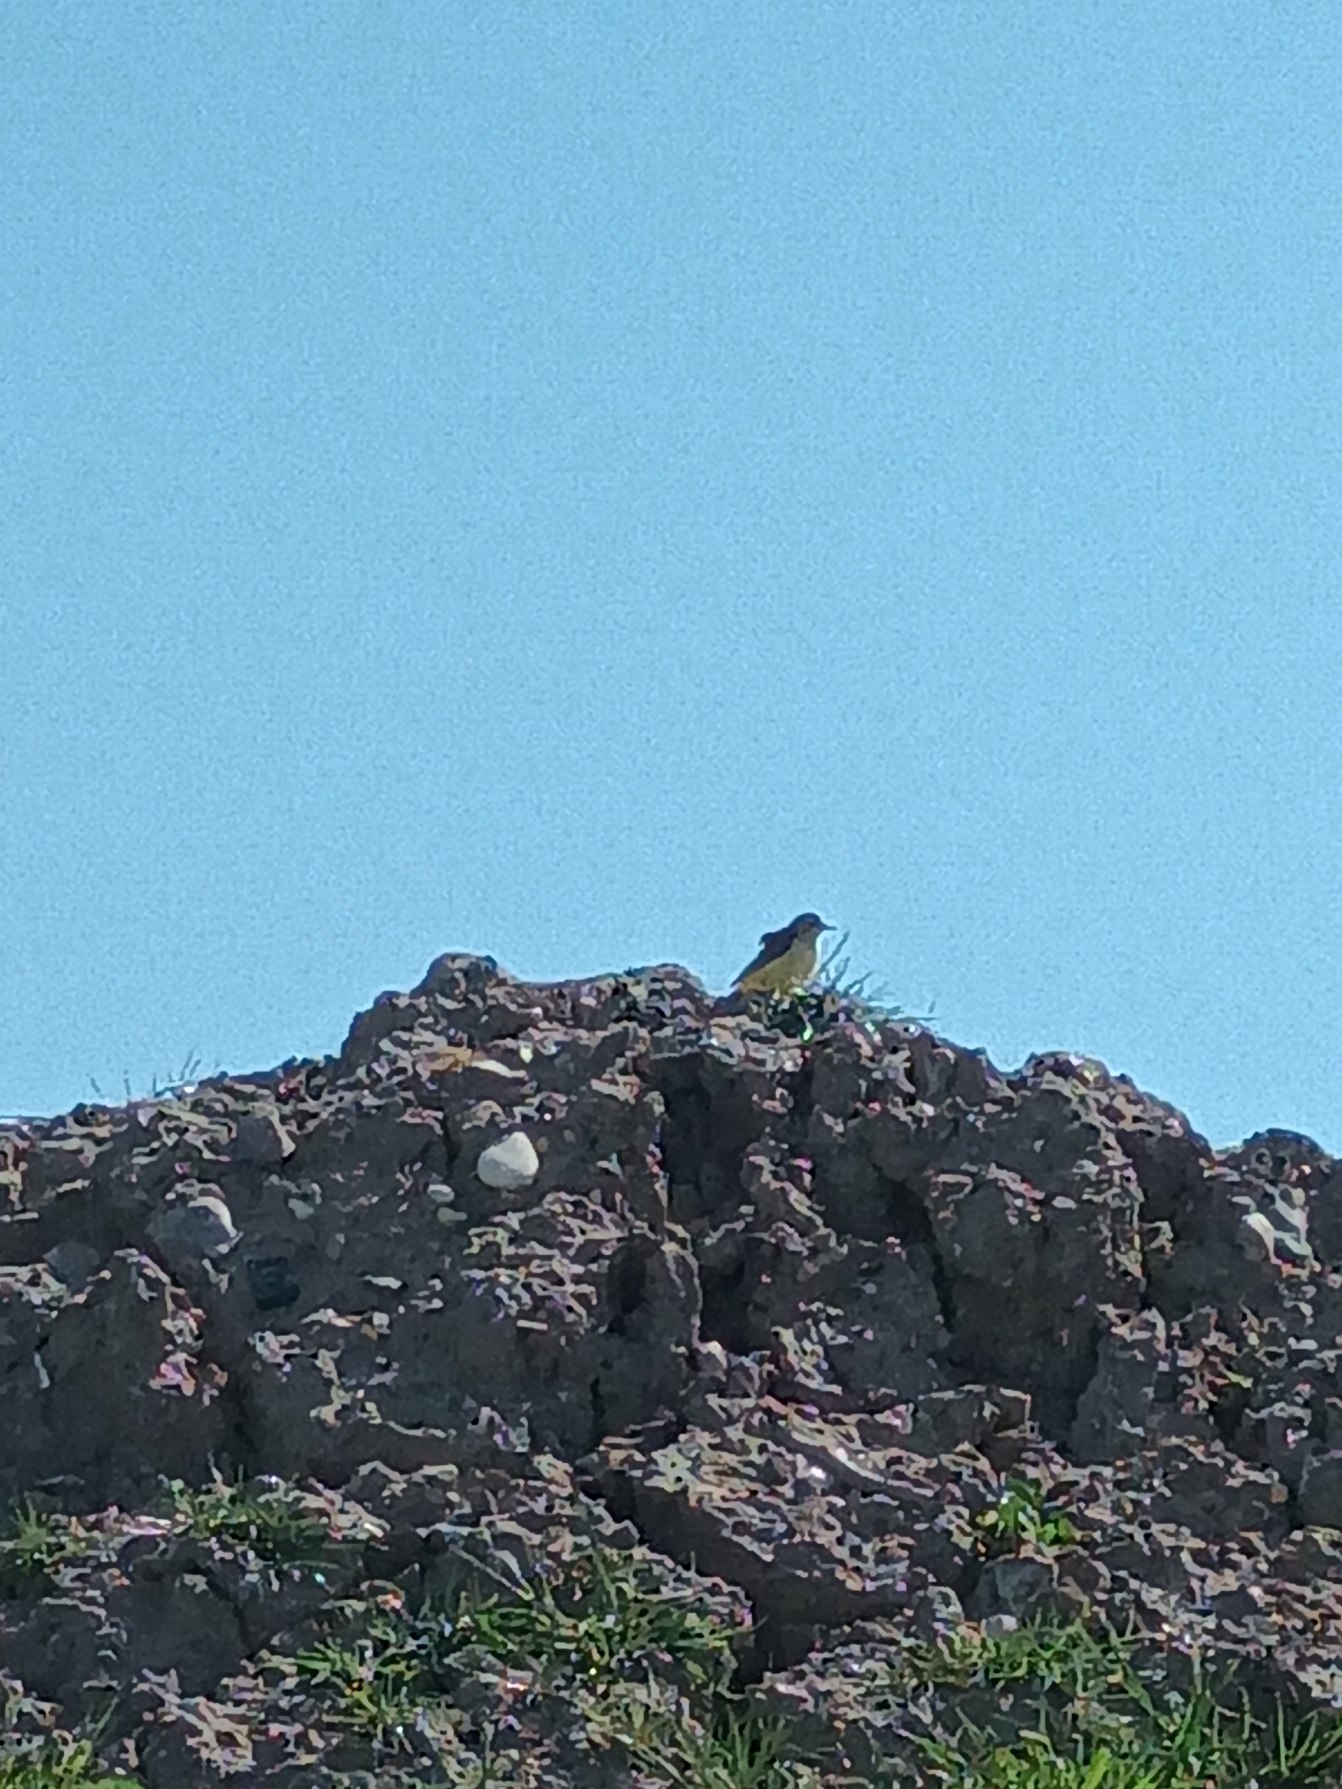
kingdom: Animalia
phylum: Chordata
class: Aves
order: Passeriformes
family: Motacillidae
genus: Motacilla
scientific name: Motacilla flava
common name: Gul vipstjert
